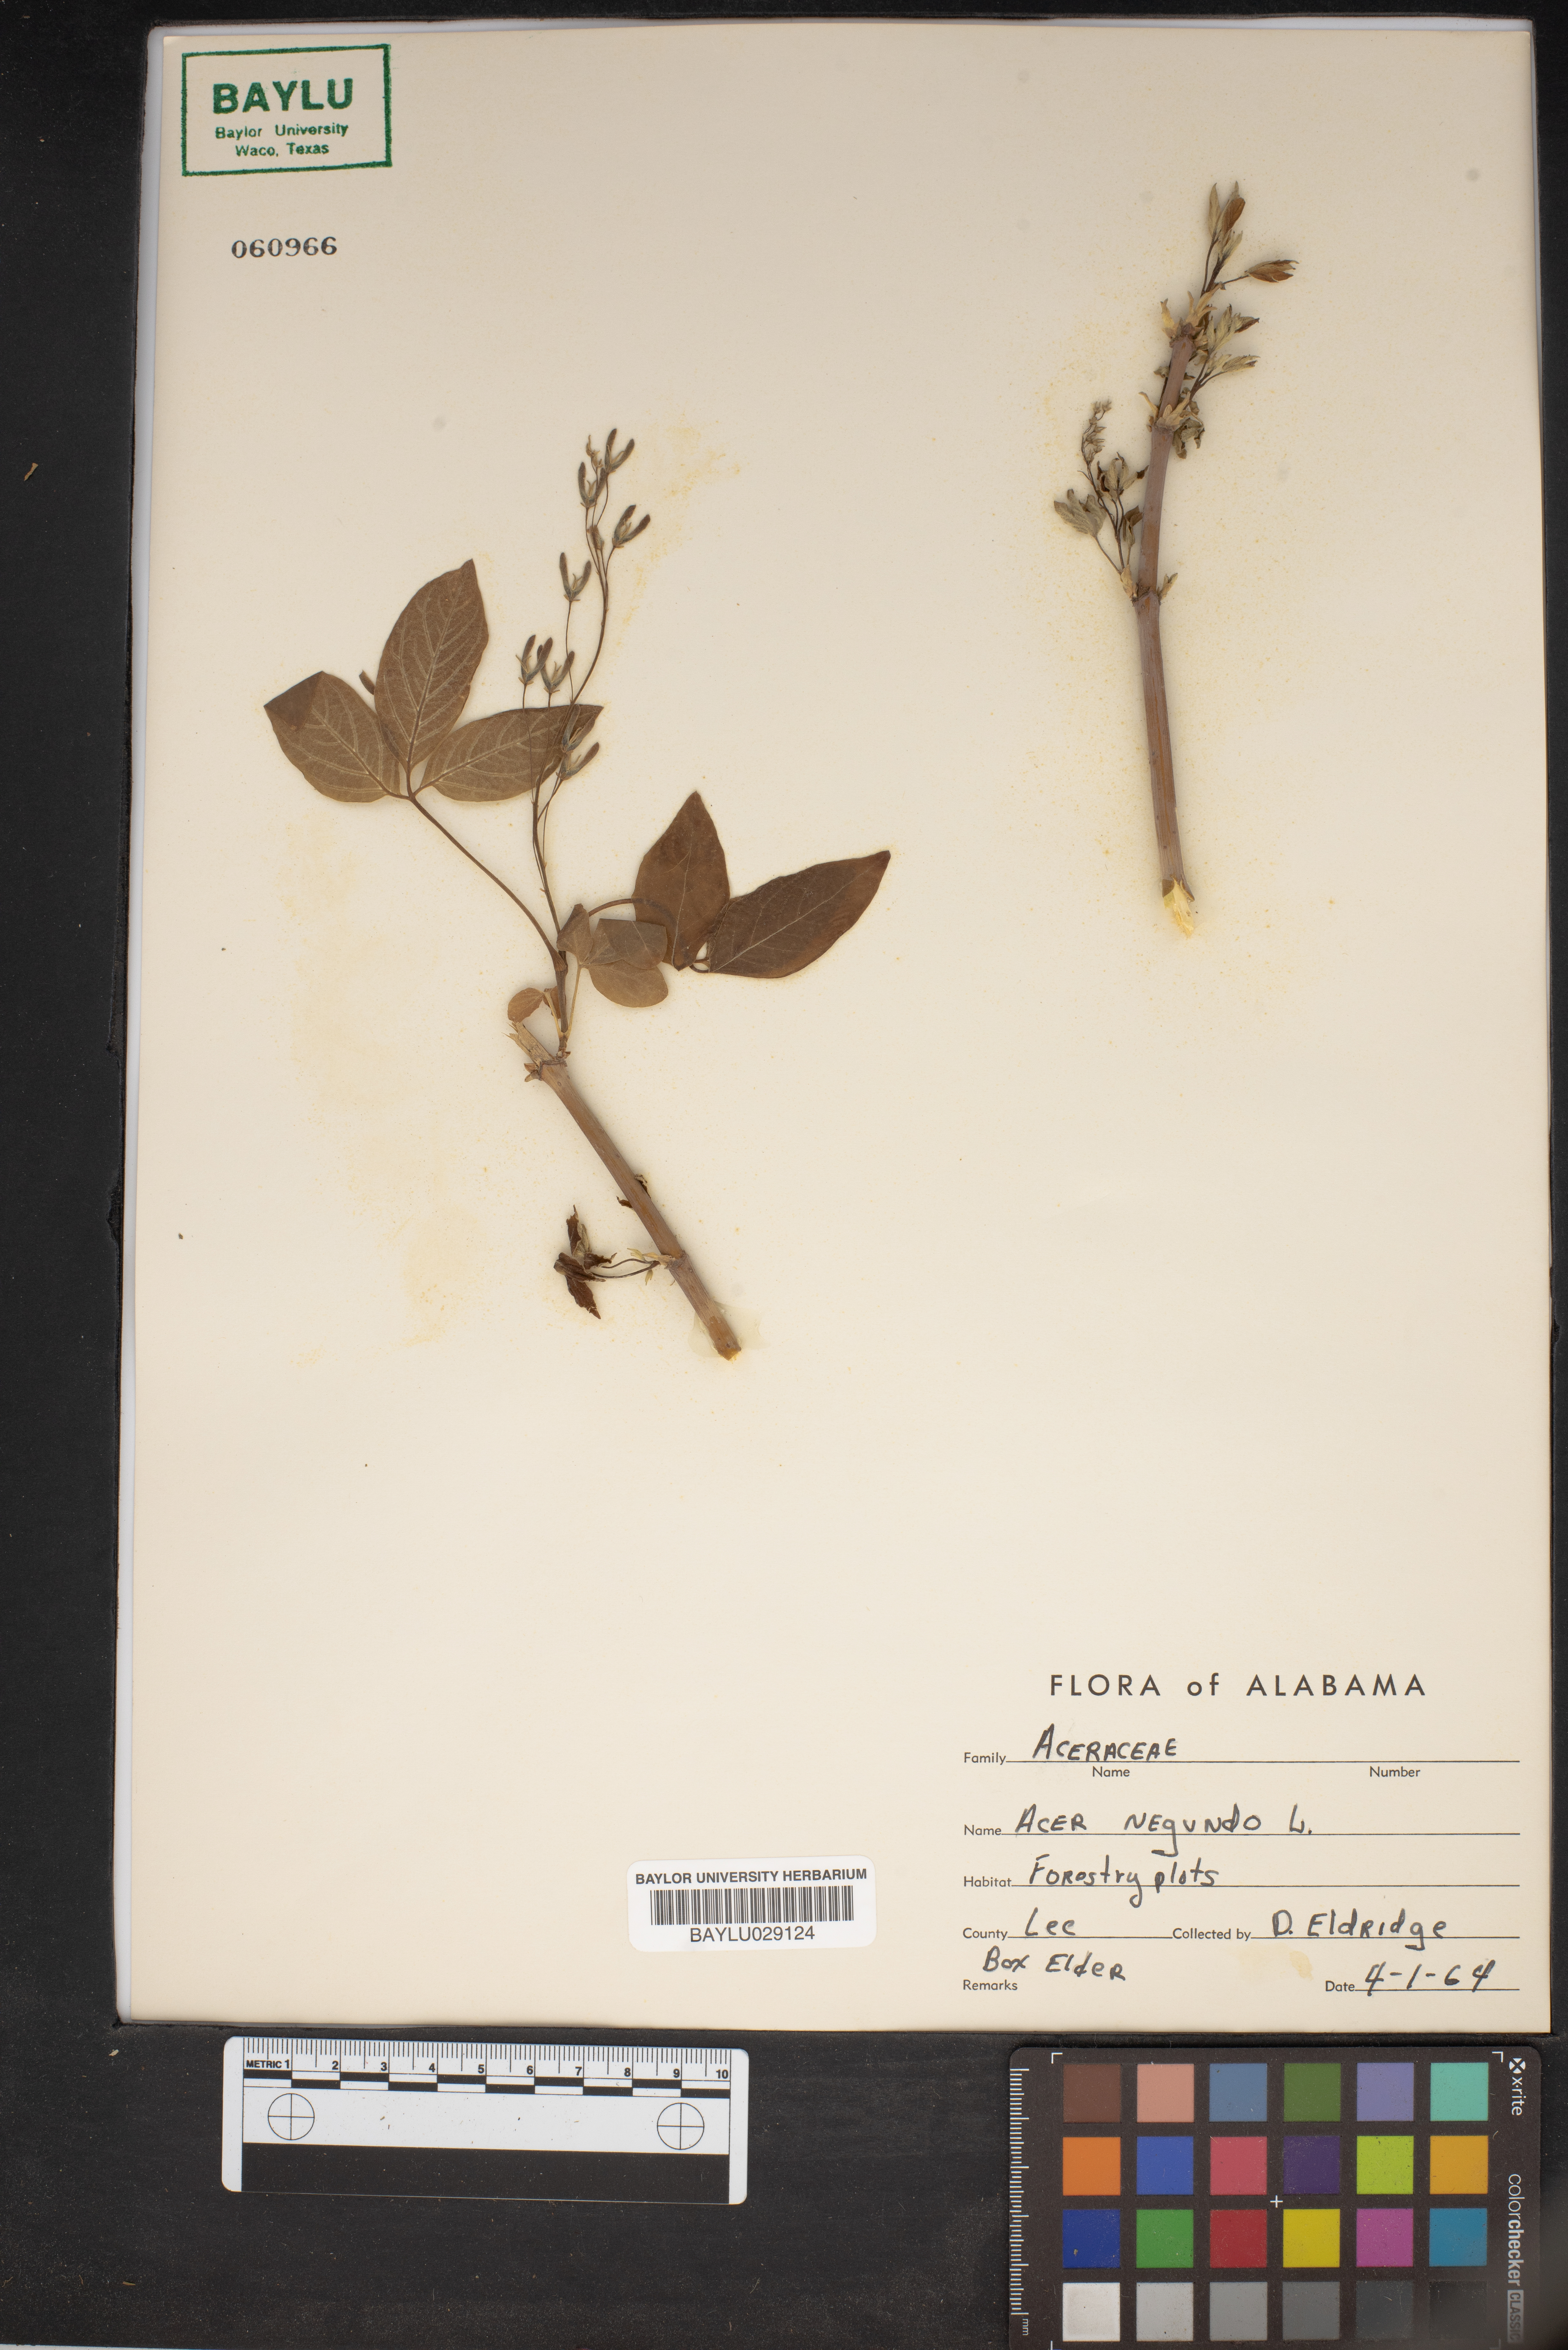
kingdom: Plantae
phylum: Tracheophyta
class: Magnoliopsida
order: Sapindales
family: Sapindaceae
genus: Acer
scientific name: Acer negundo
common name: Ashleaf maple
